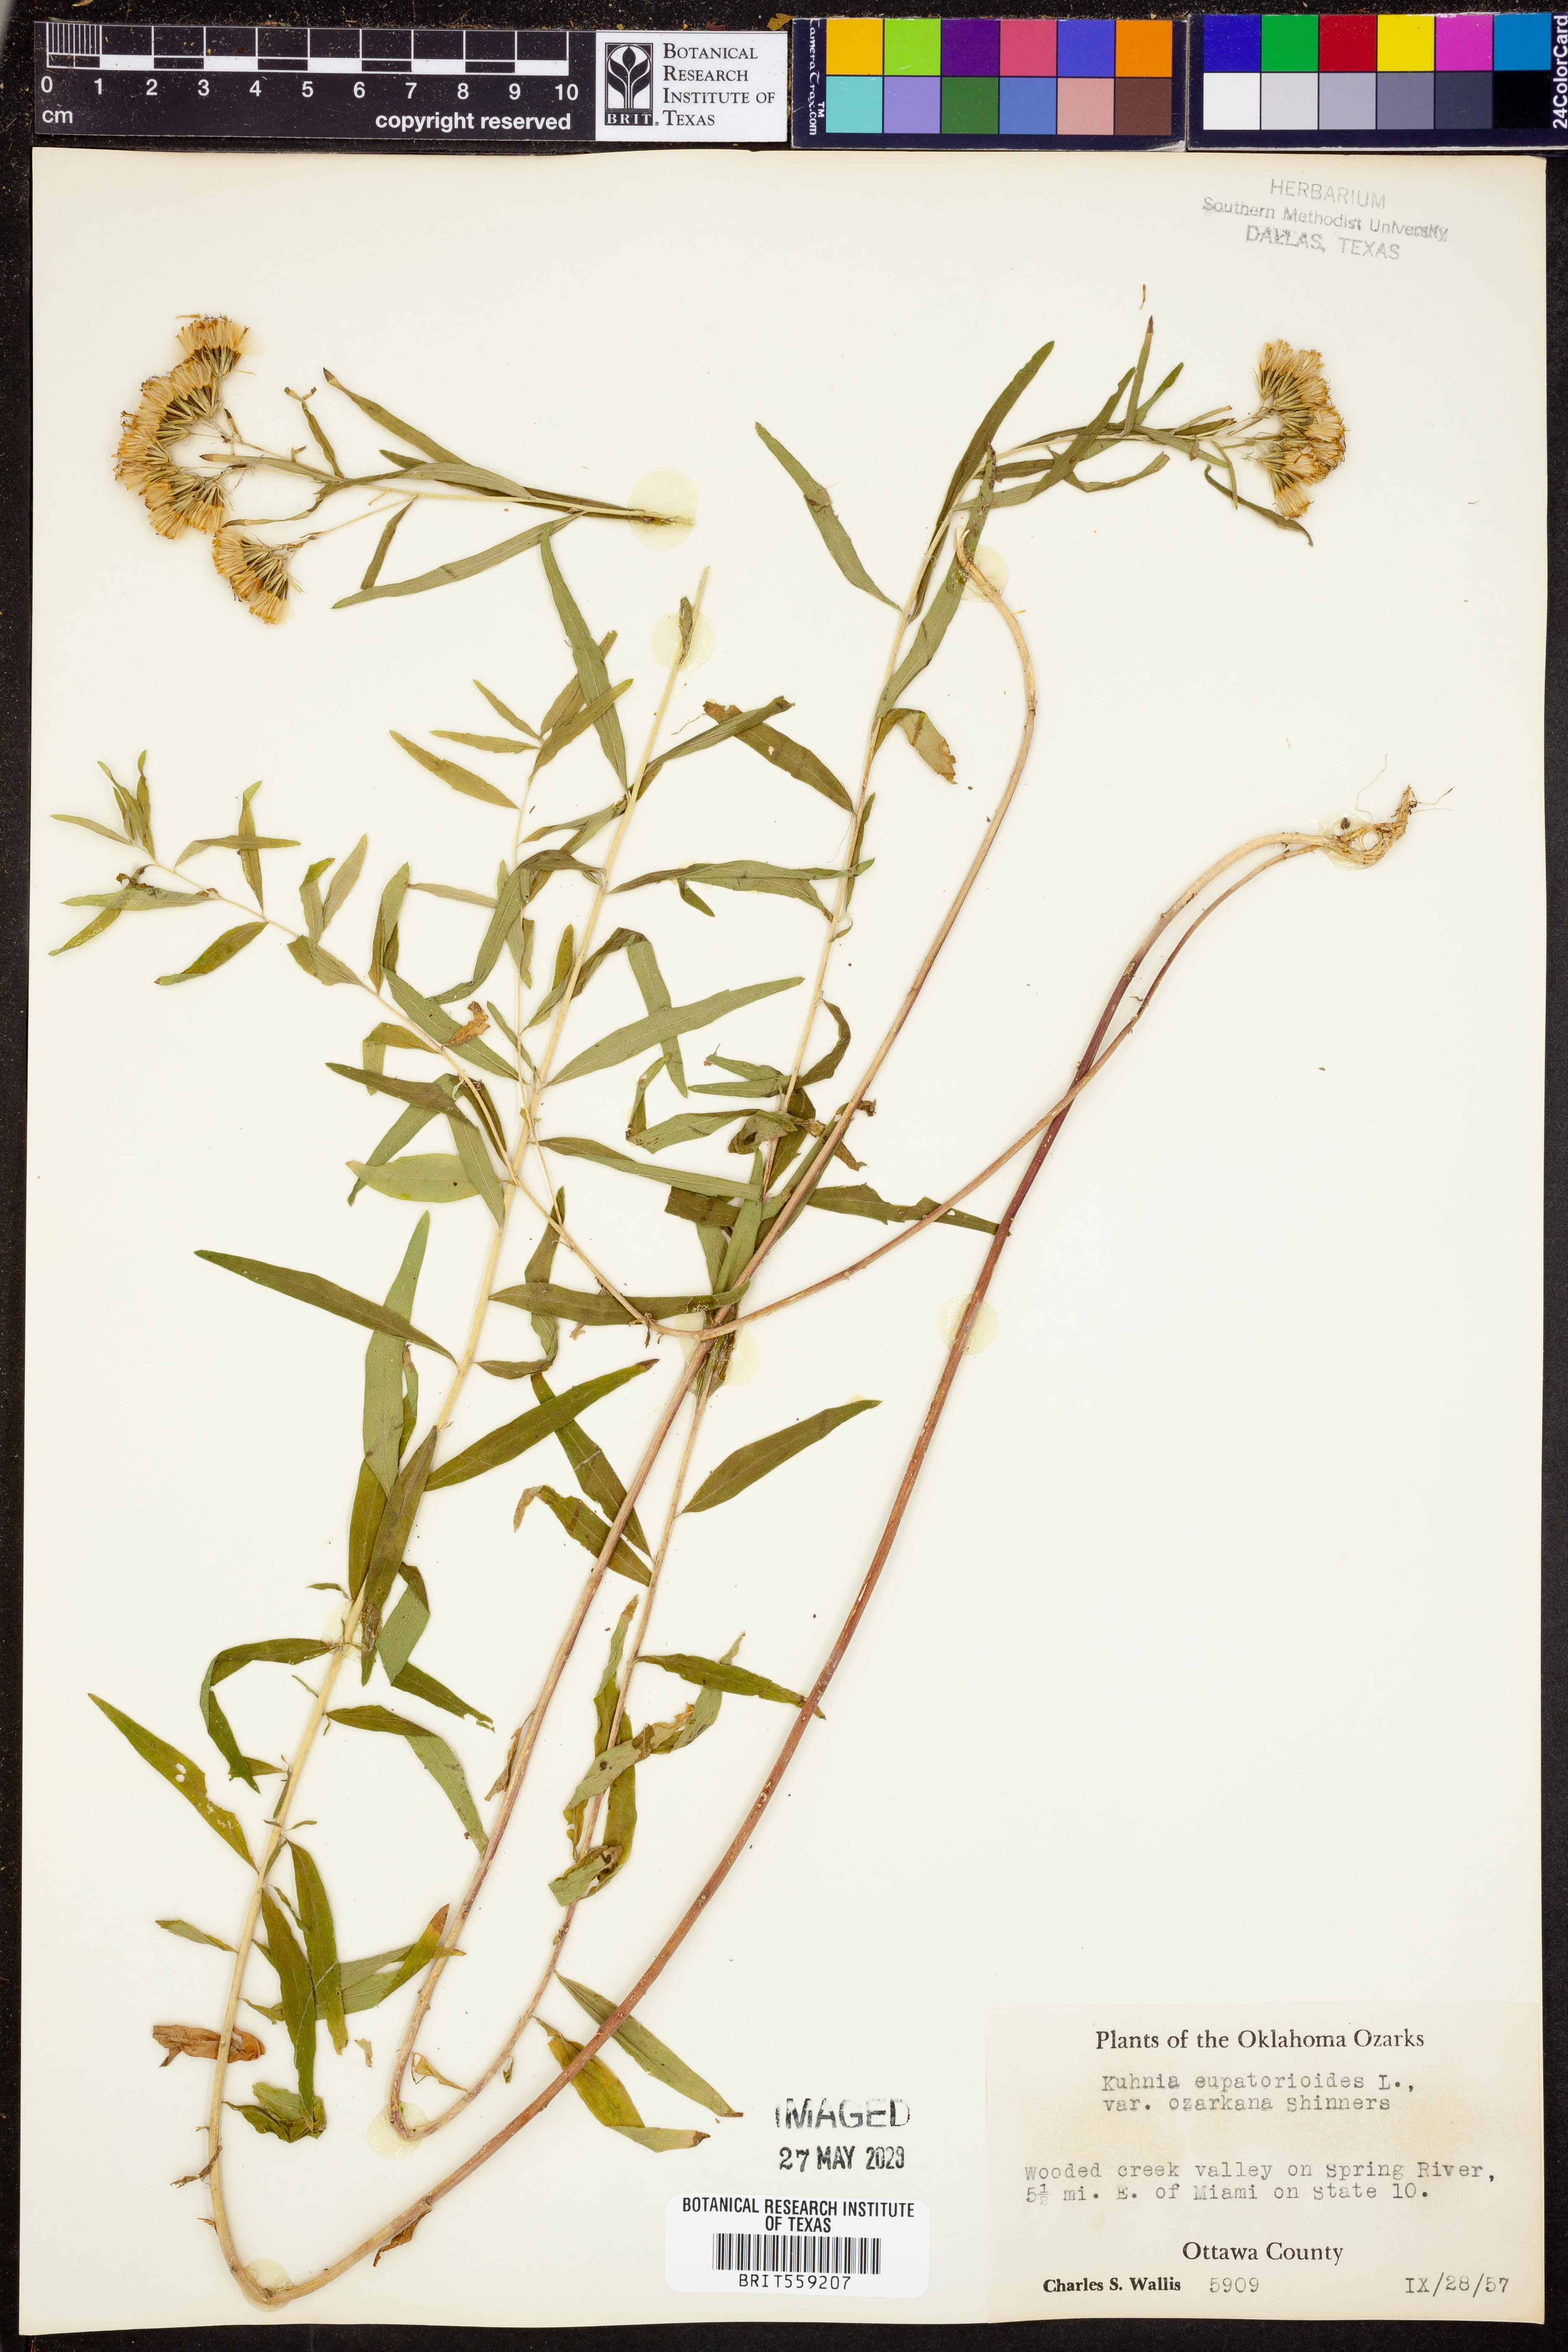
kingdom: Plantae
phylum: Tracheophyta
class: Magnoliopsida
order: Asterales
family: Asteraceae
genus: Brickellia
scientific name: Brickellia ozarkana
